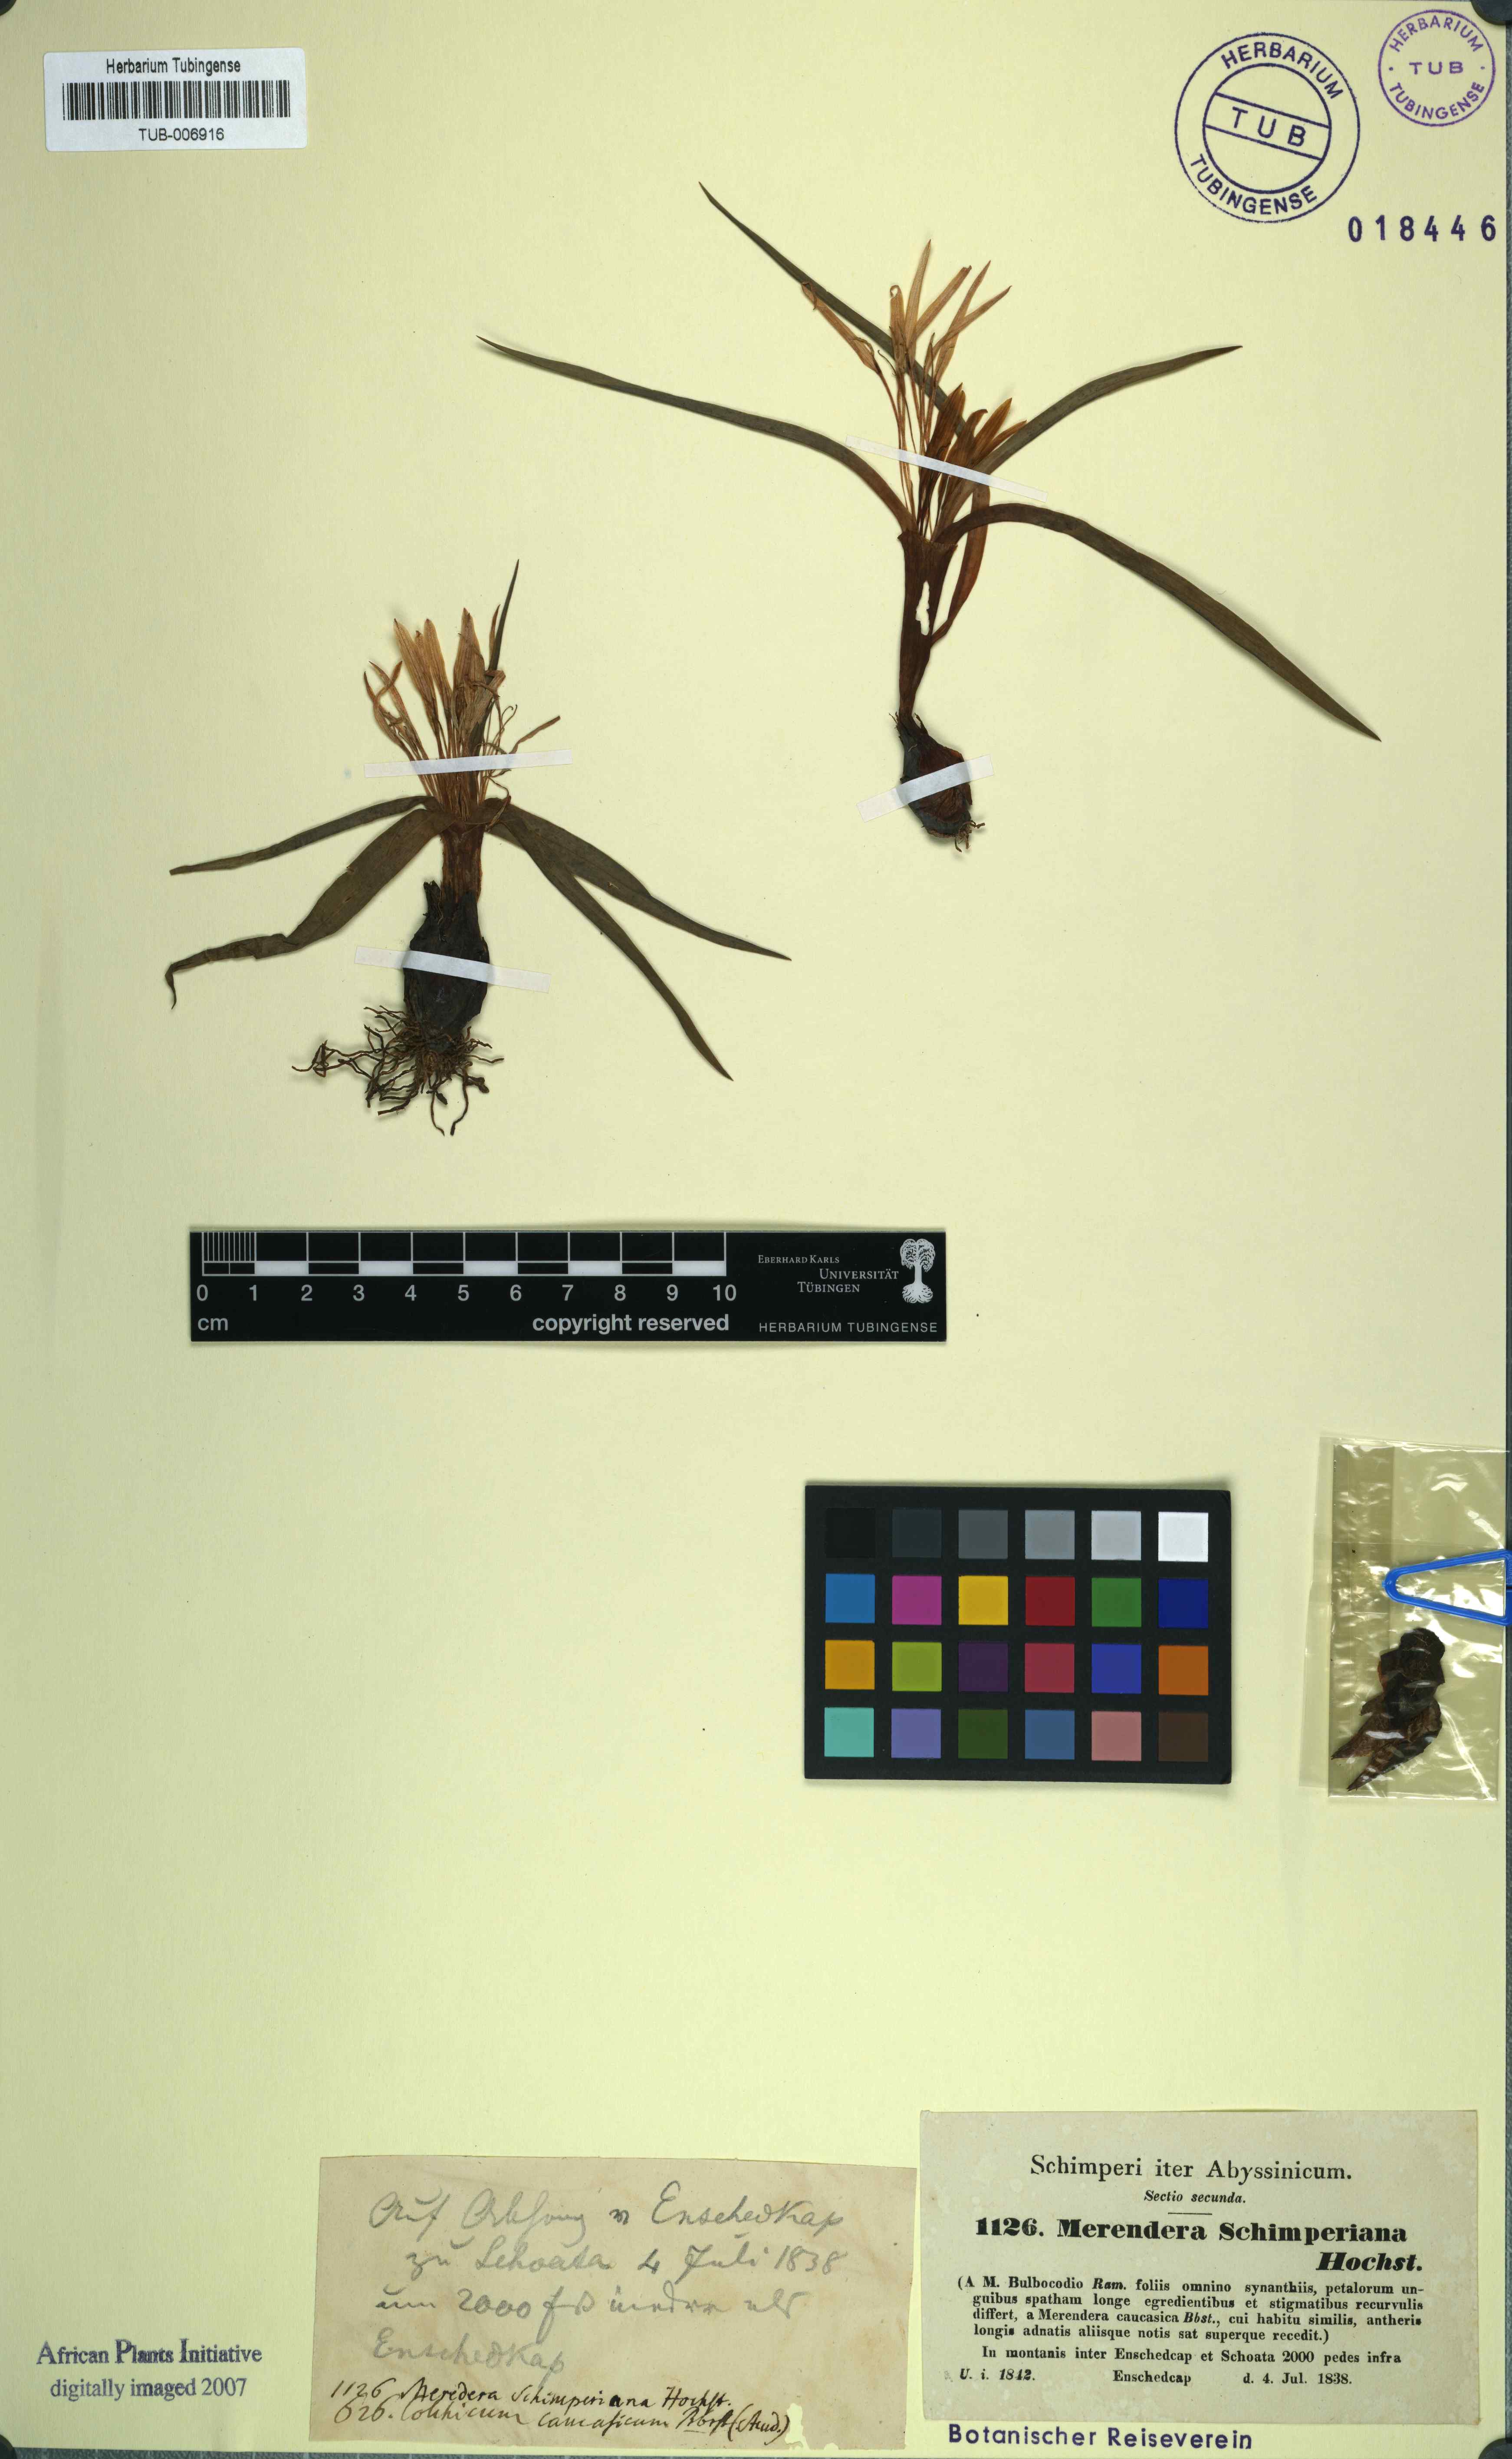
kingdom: Plantae
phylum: Tracheophyta
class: Liliopsida
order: Liliales
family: Colchicaceae
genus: Colchicum
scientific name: Colchicum schimperianum
